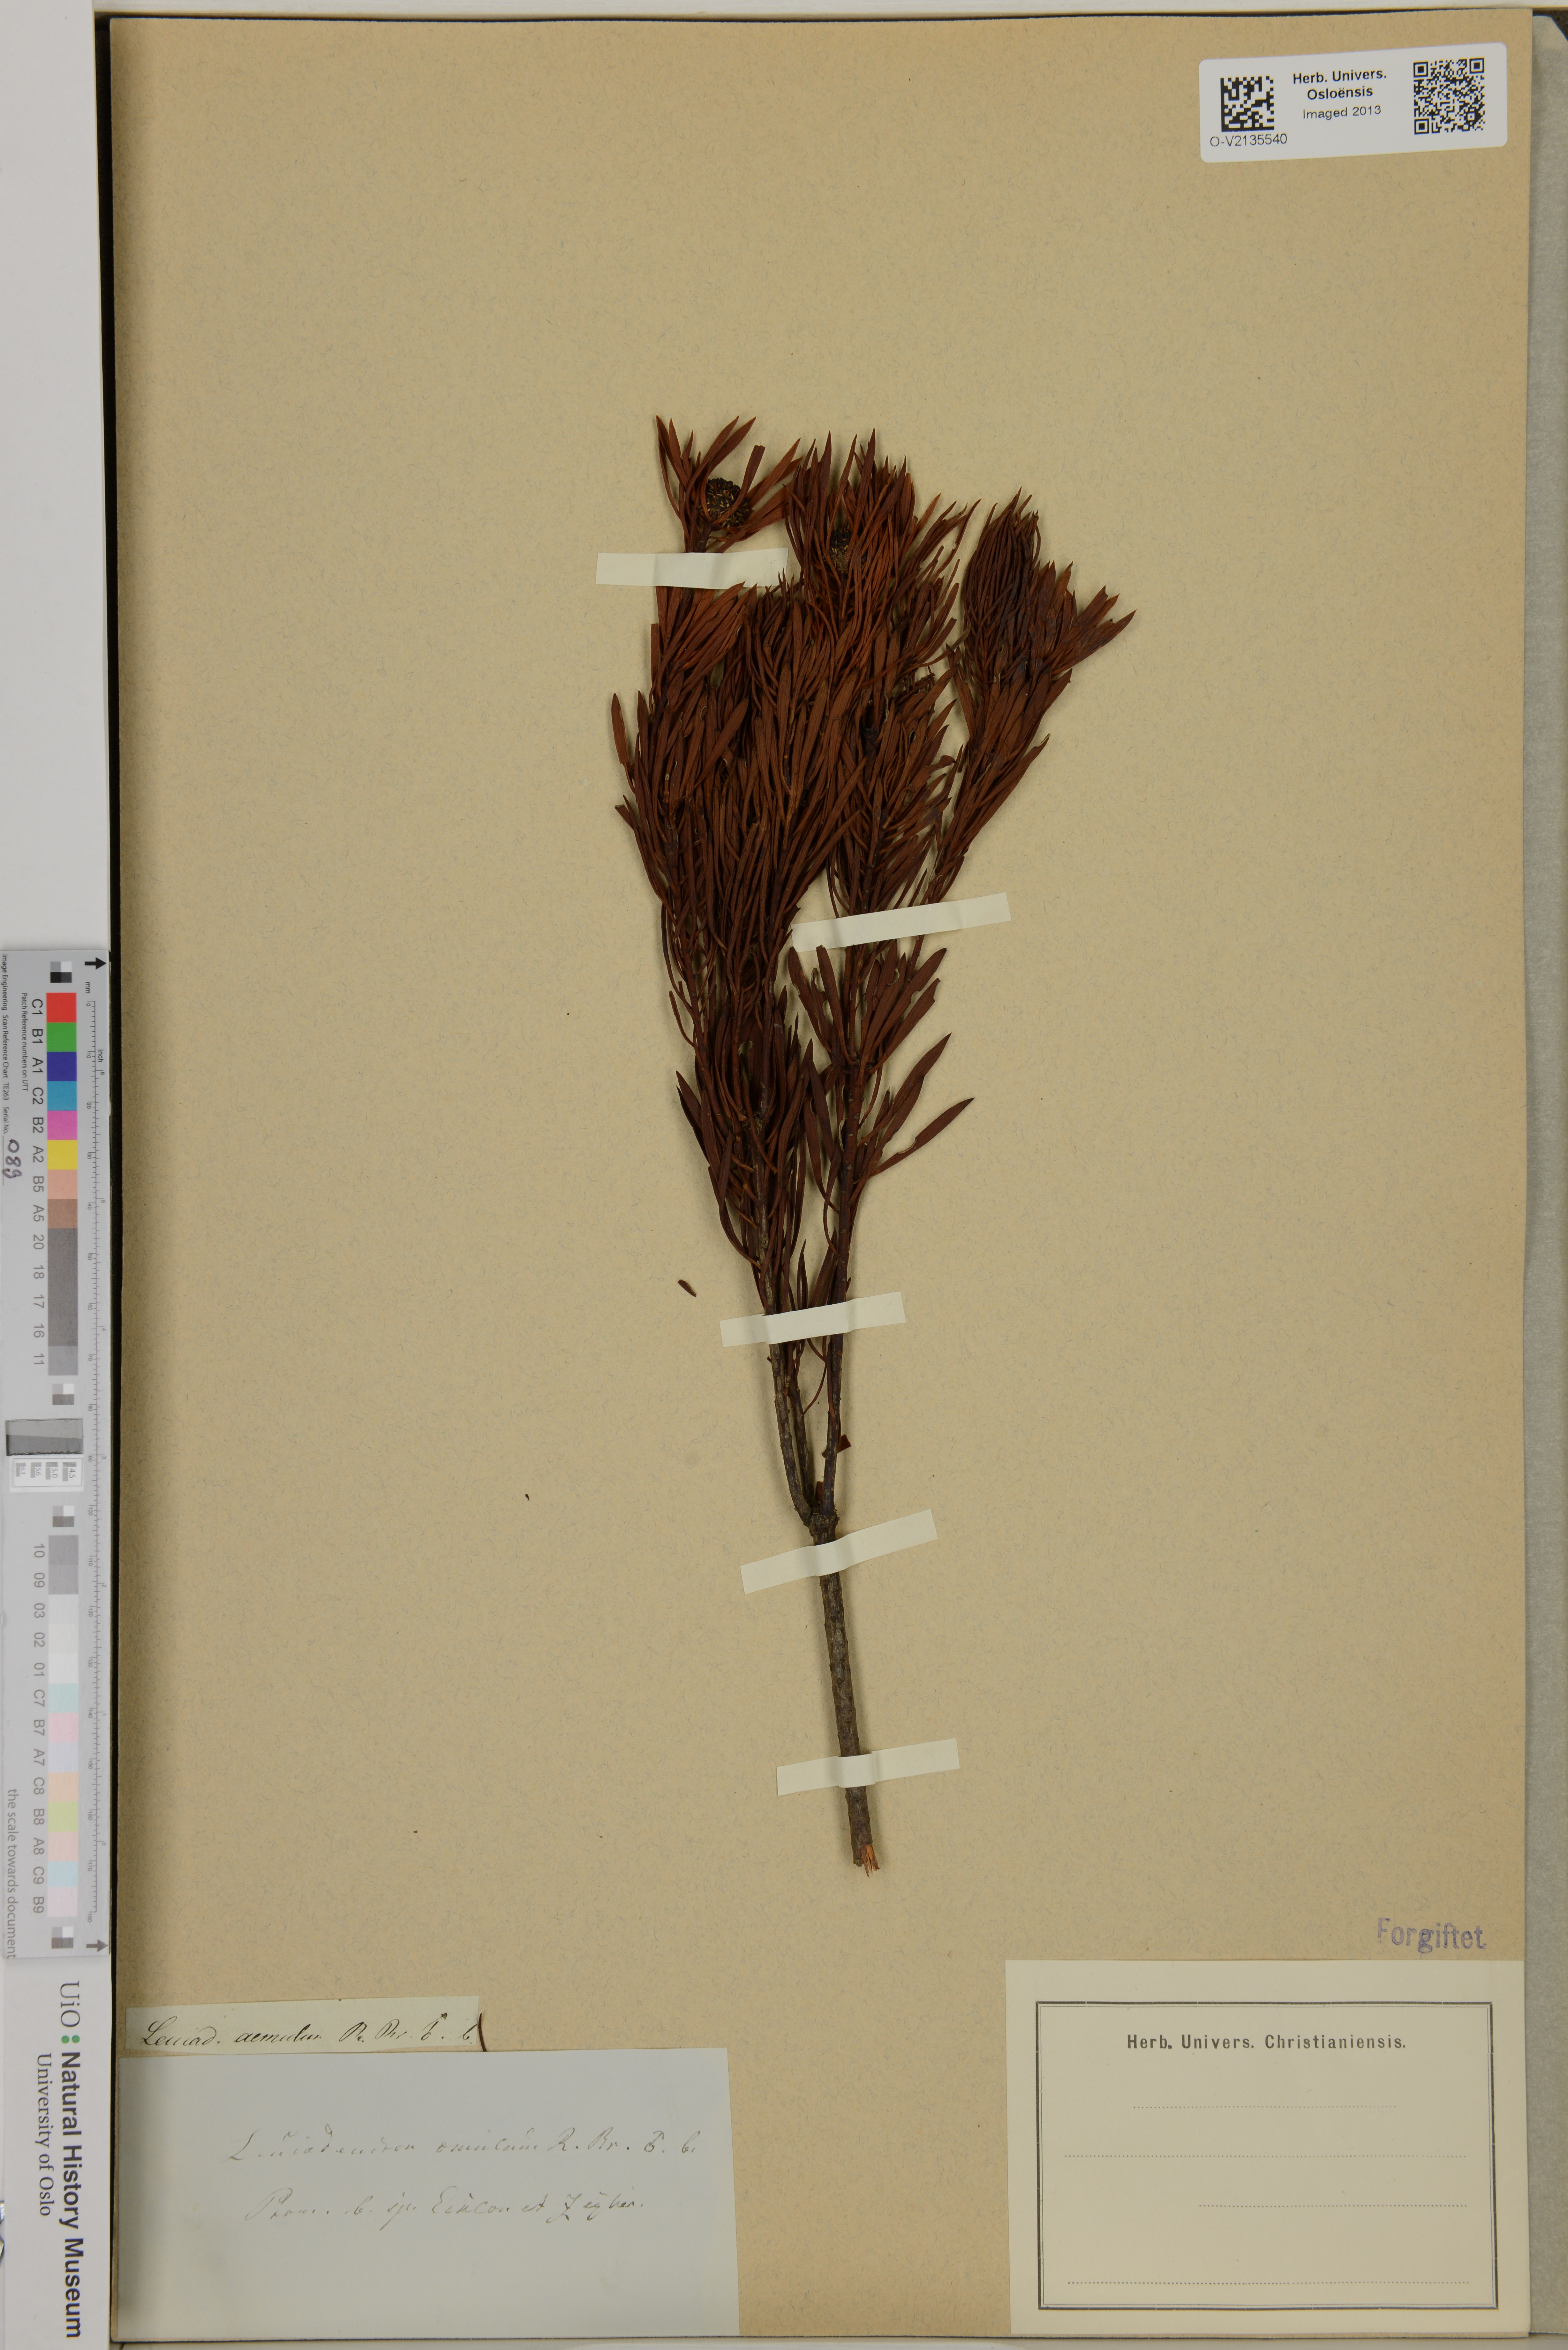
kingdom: Plantae
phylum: Tracheophyta
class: Magnoliopsida
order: Proteales
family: Proteaceae
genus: Leucadendron
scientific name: Leucadendron comosum
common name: Ridge-cone conebush
